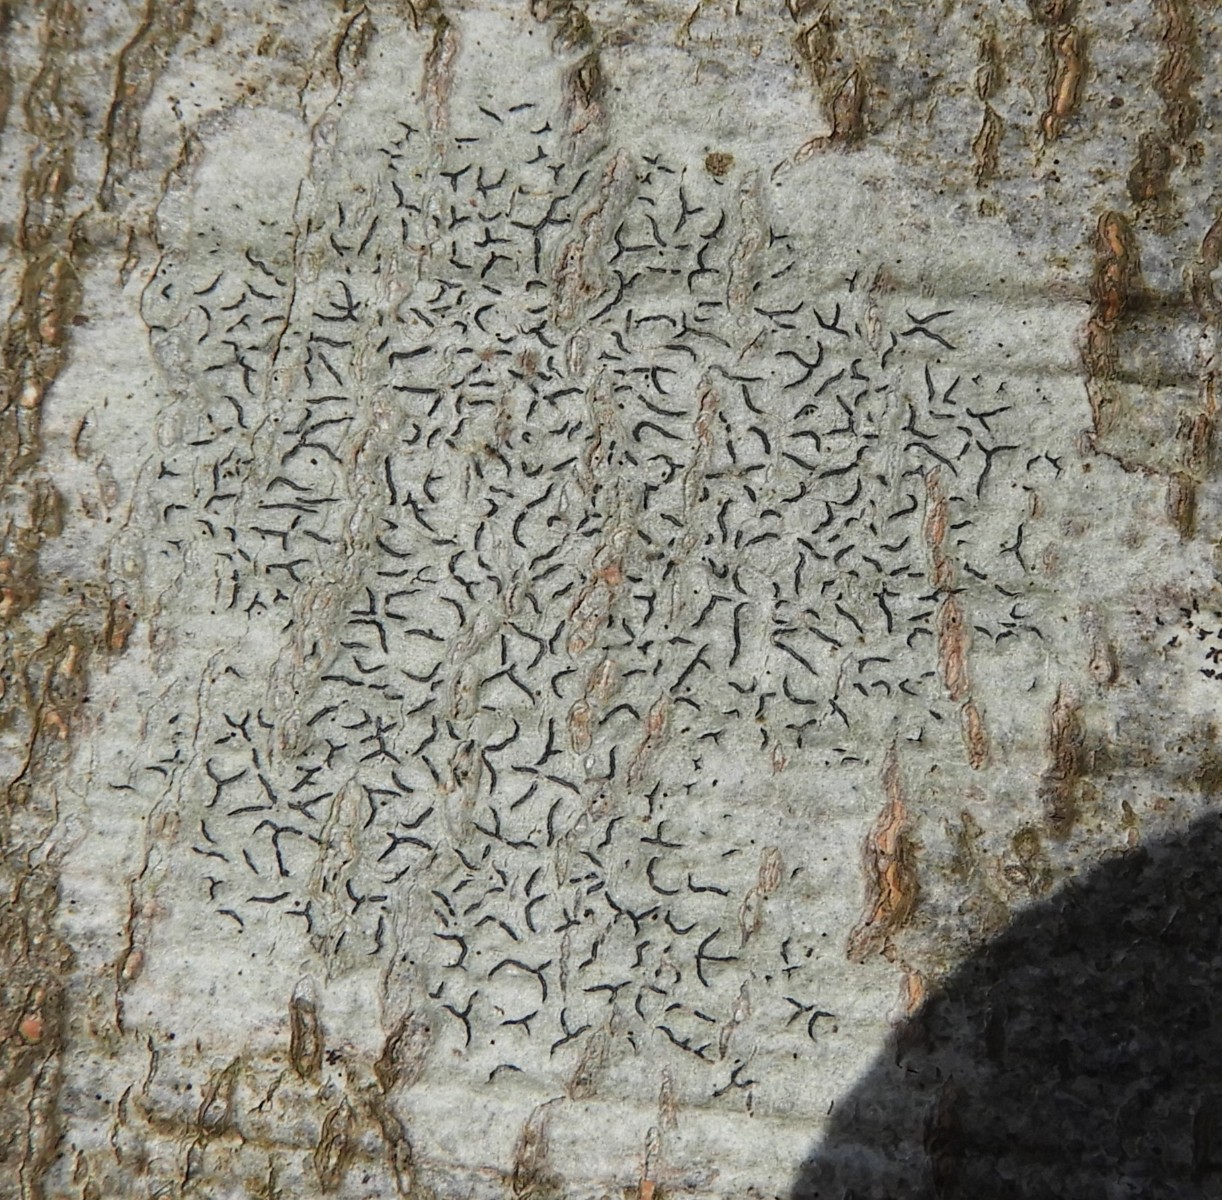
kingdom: Fungi
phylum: Ascomycota
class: Lecanoromycetes
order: Ostropales
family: Graphidaceae
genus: Graphis
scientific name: Graphis scripta
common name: almindelig skriftlav
